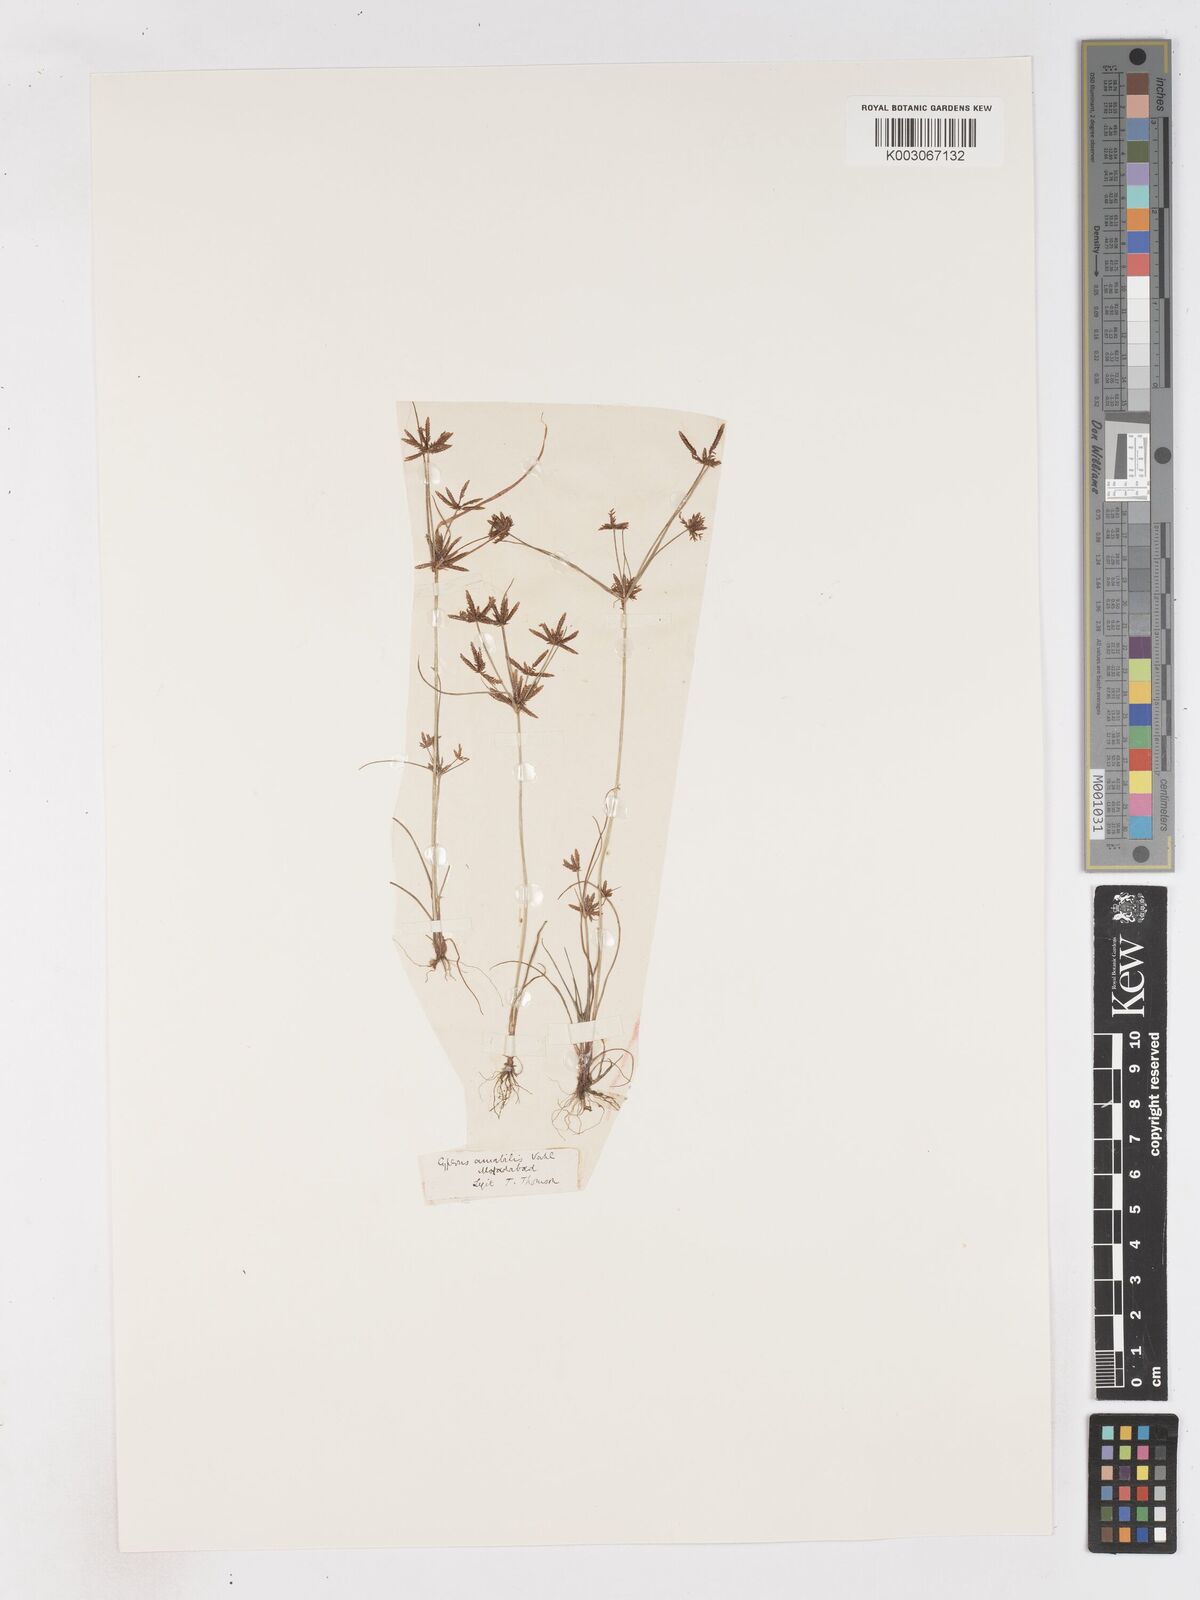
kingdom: Plantae
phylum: Tracheophyta
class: Liliopsida
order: Poales
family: Cyperaceae
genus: Cyperus
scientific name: Cyperus amabilis
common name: Foothill flat sedge
